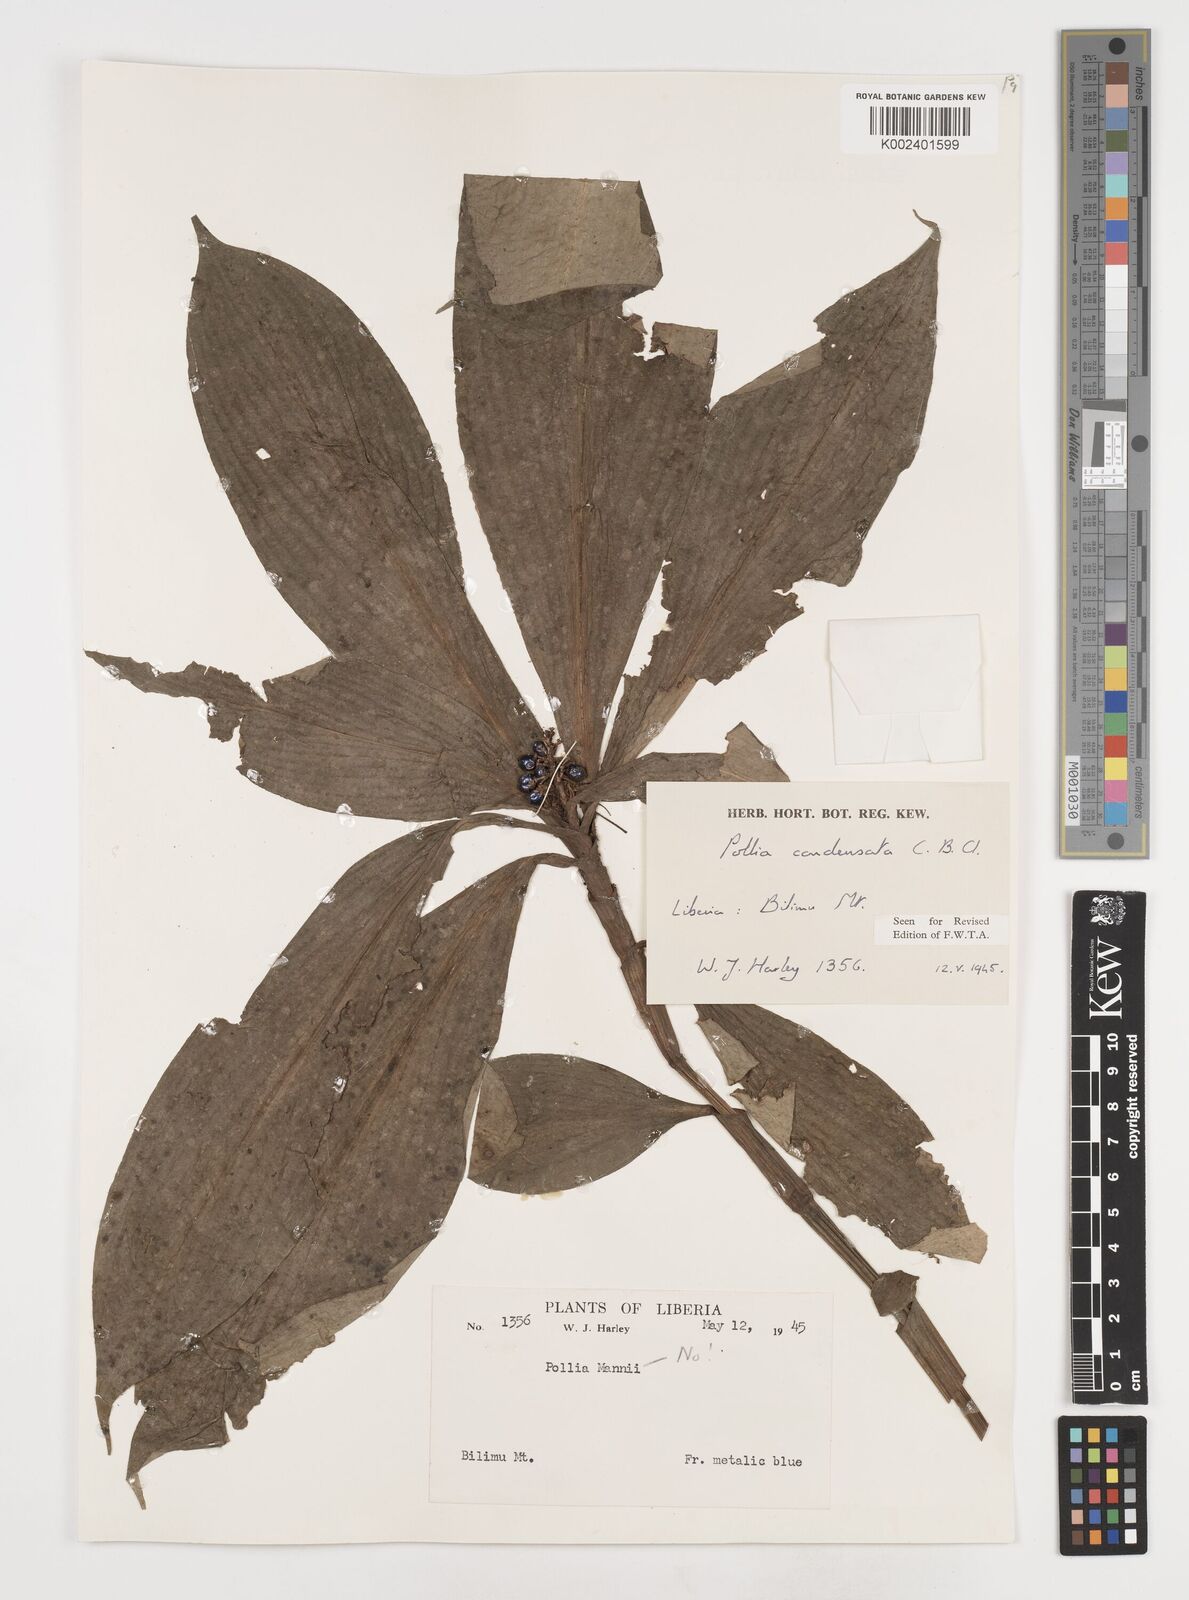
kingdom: Plantae
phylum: Tracheophyta
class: Liliopsida
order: Commelinales
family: Commelinaceae
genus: Pollia
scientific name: Pollia condensata
